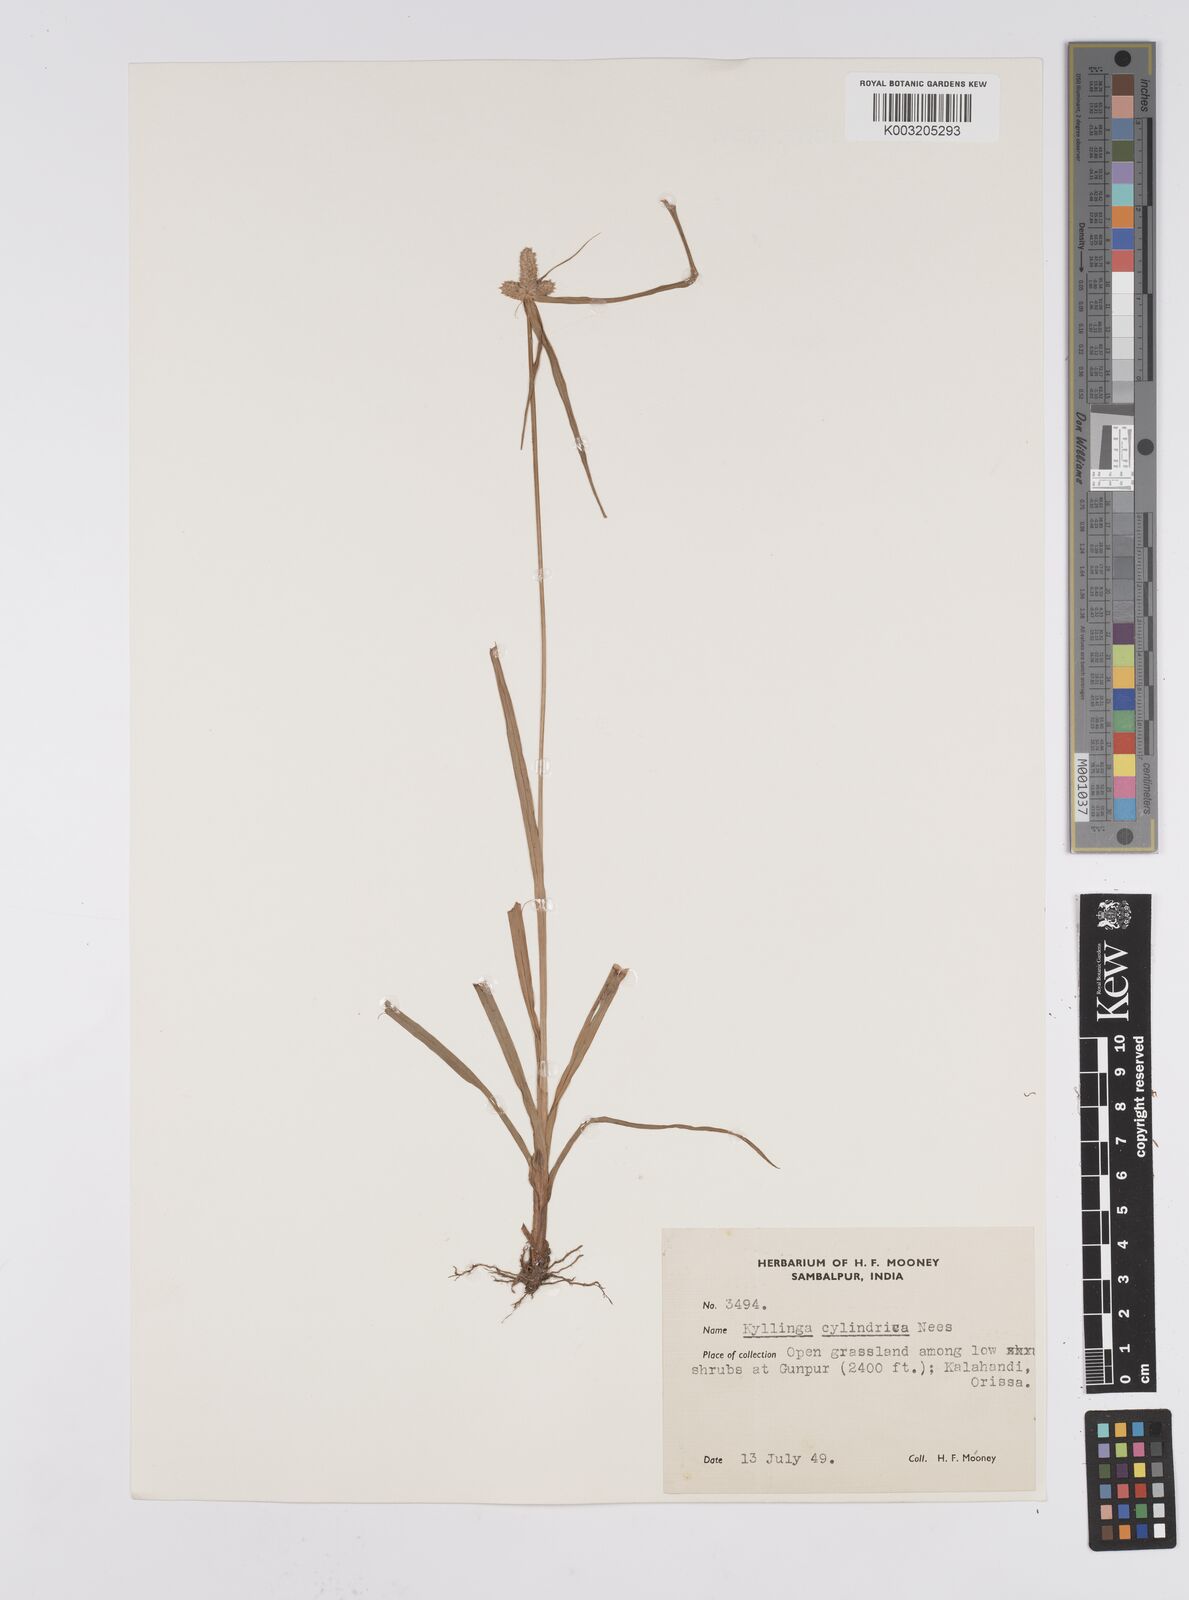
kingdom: Plantae
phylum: Tracheophyta
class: Liliopsida
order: Poales
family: Cyperaceae
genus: Cyperus
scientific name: Cyperus
